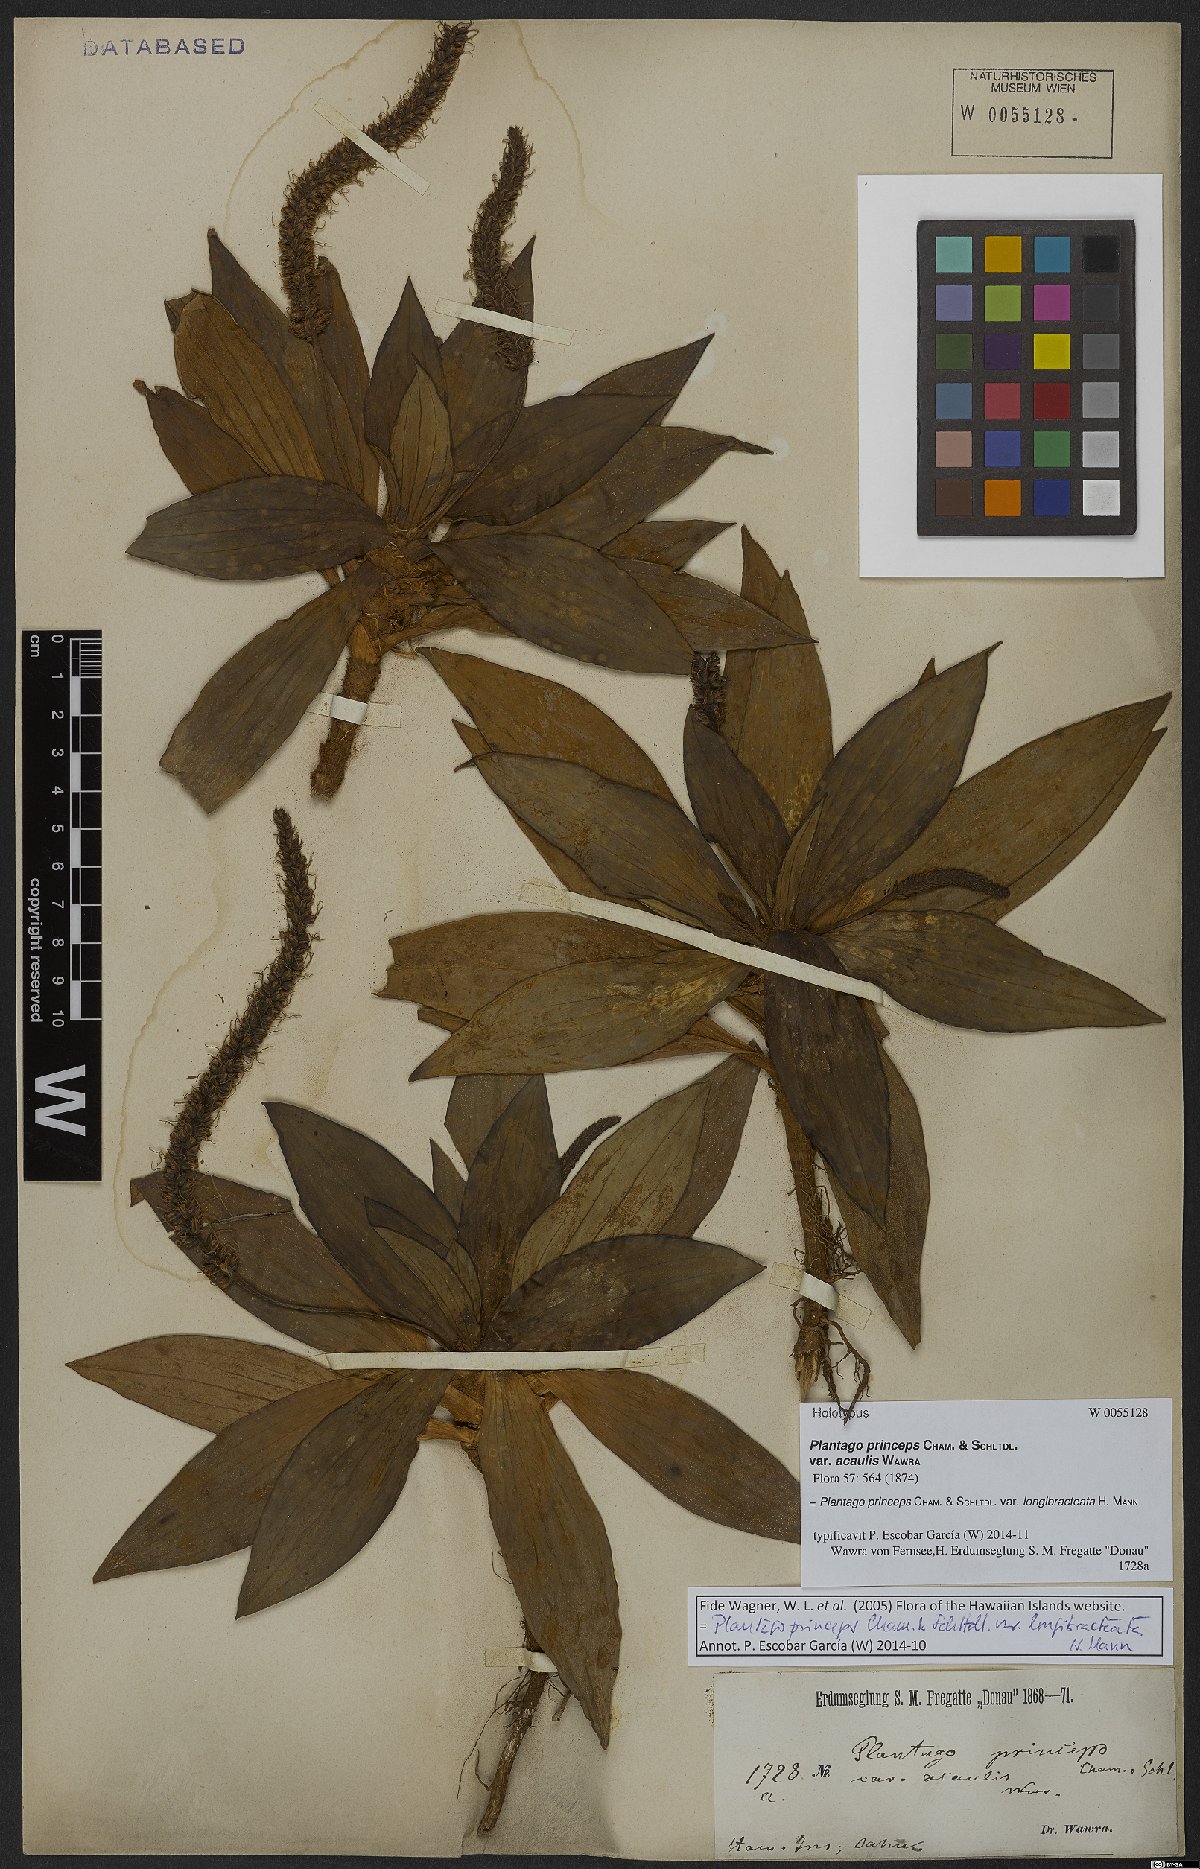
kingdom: Plantae
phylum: Tracheophyta
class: Magnoliopsida
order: Lamiales
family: Plantaginaceae
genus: Plantago
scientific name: Plantago princeps
